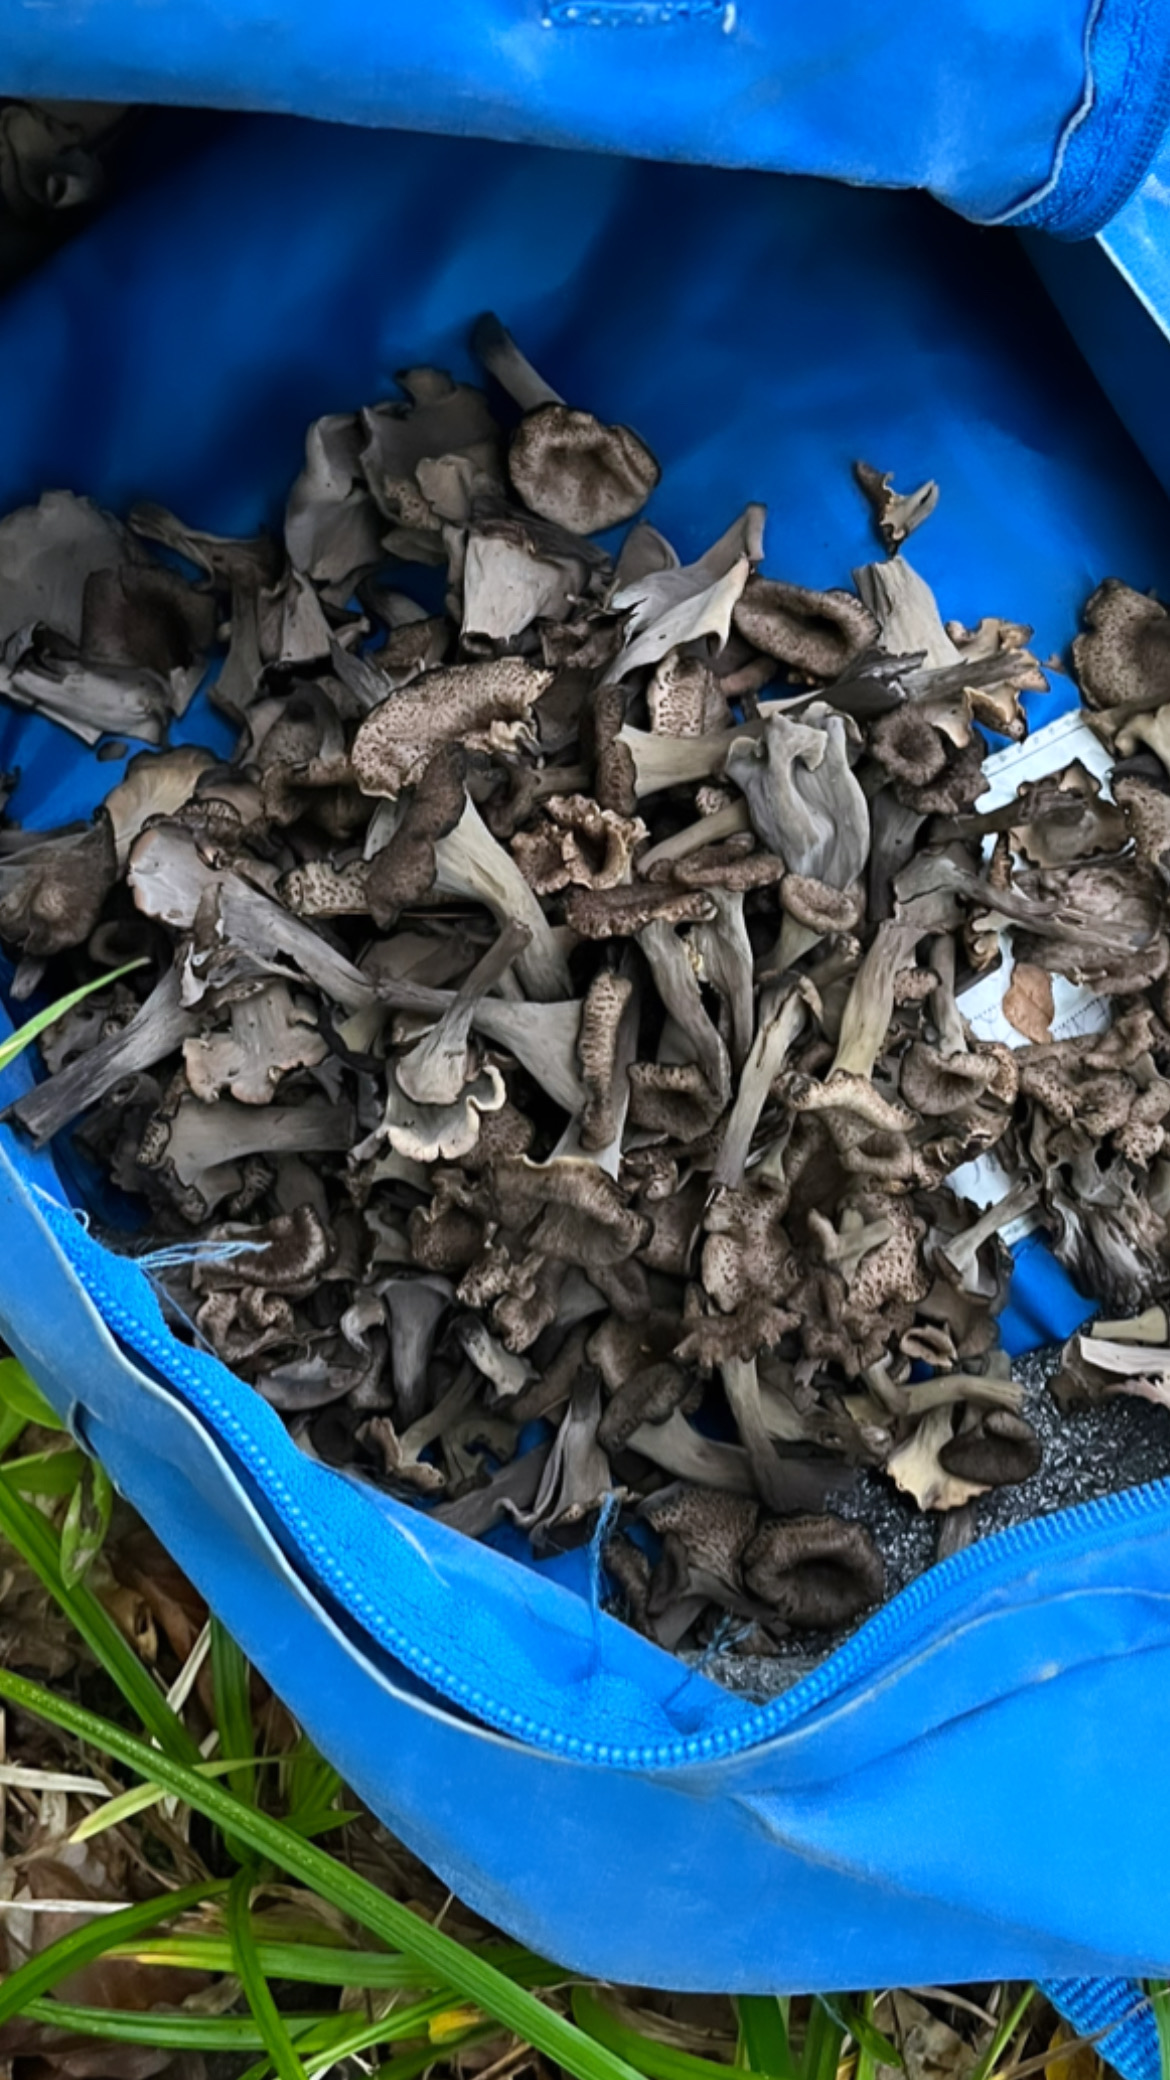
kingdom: Fungi
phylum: Basidiomycota
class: Agaricomycetes
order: Cantharellales
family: Hydnaceae
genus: Craterellus
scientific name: Craterellus cornucopioides
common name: trompetsvamp
